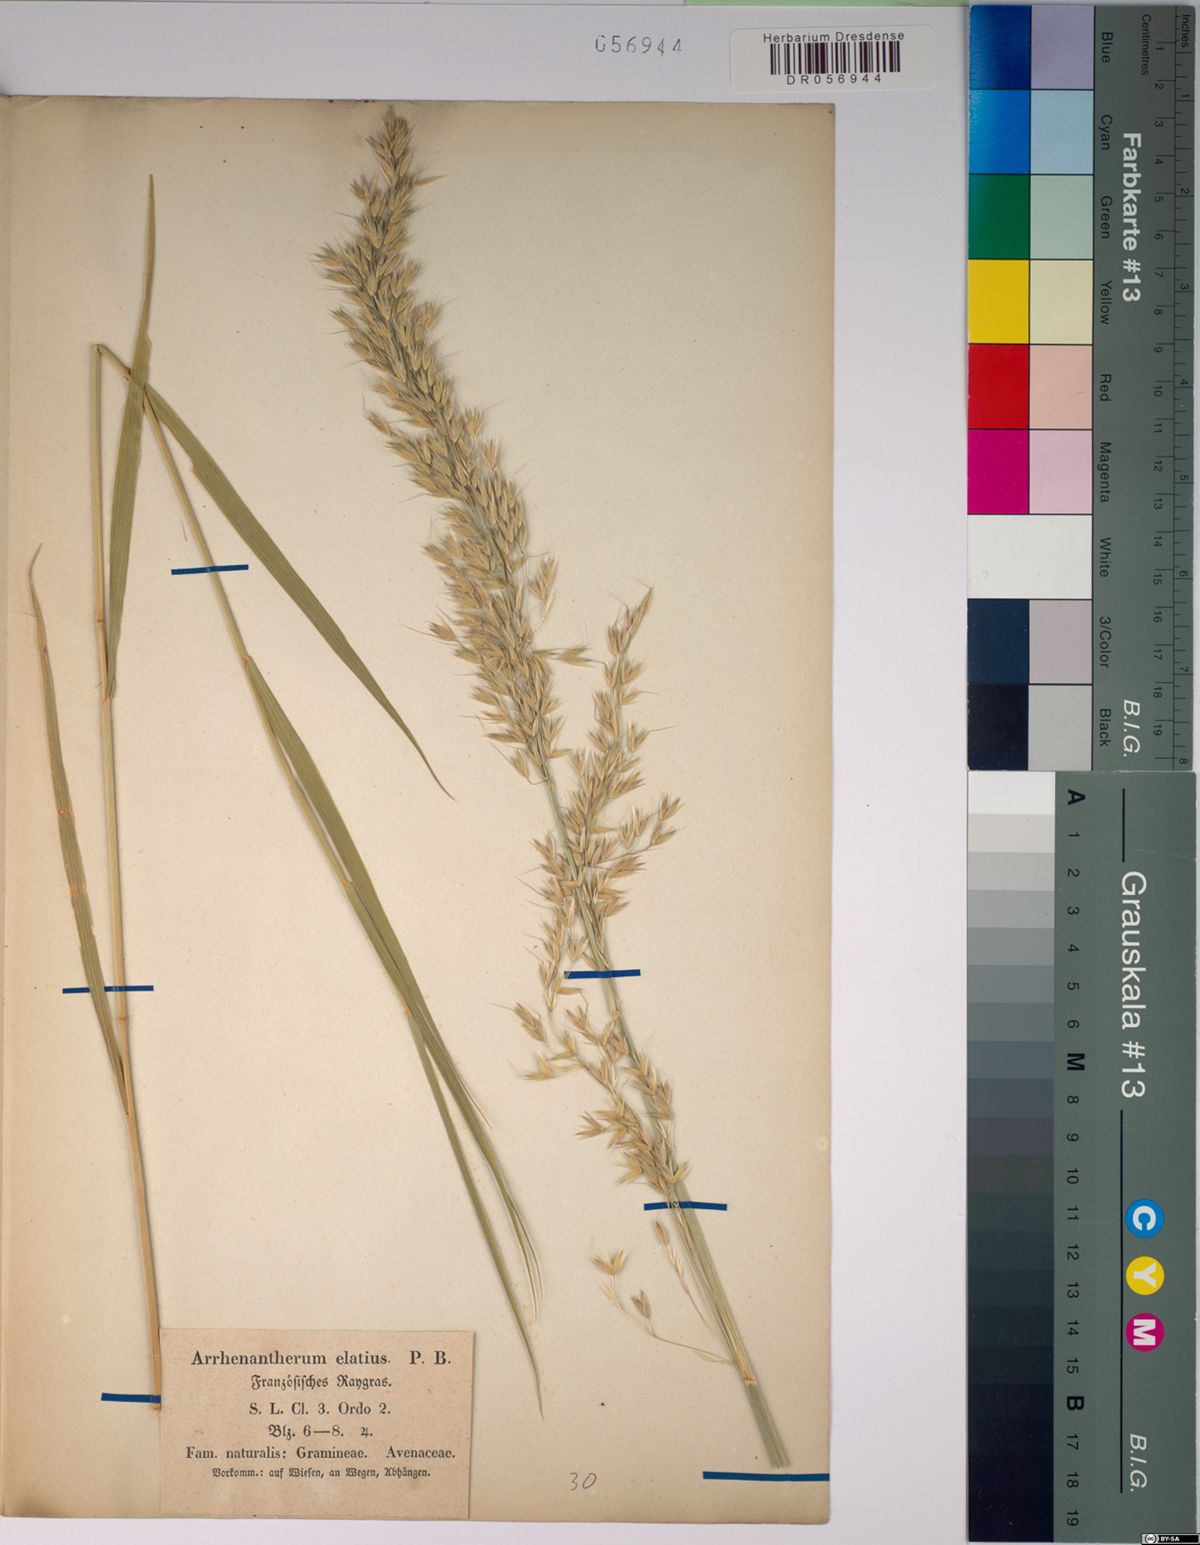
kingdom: Plantae
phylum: Tracheophyta
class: Liliopsida
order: Poales
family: Poaceae
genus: Arrhenatherum
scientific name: Arrhenatherum elatius
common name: Tall oatgrass
